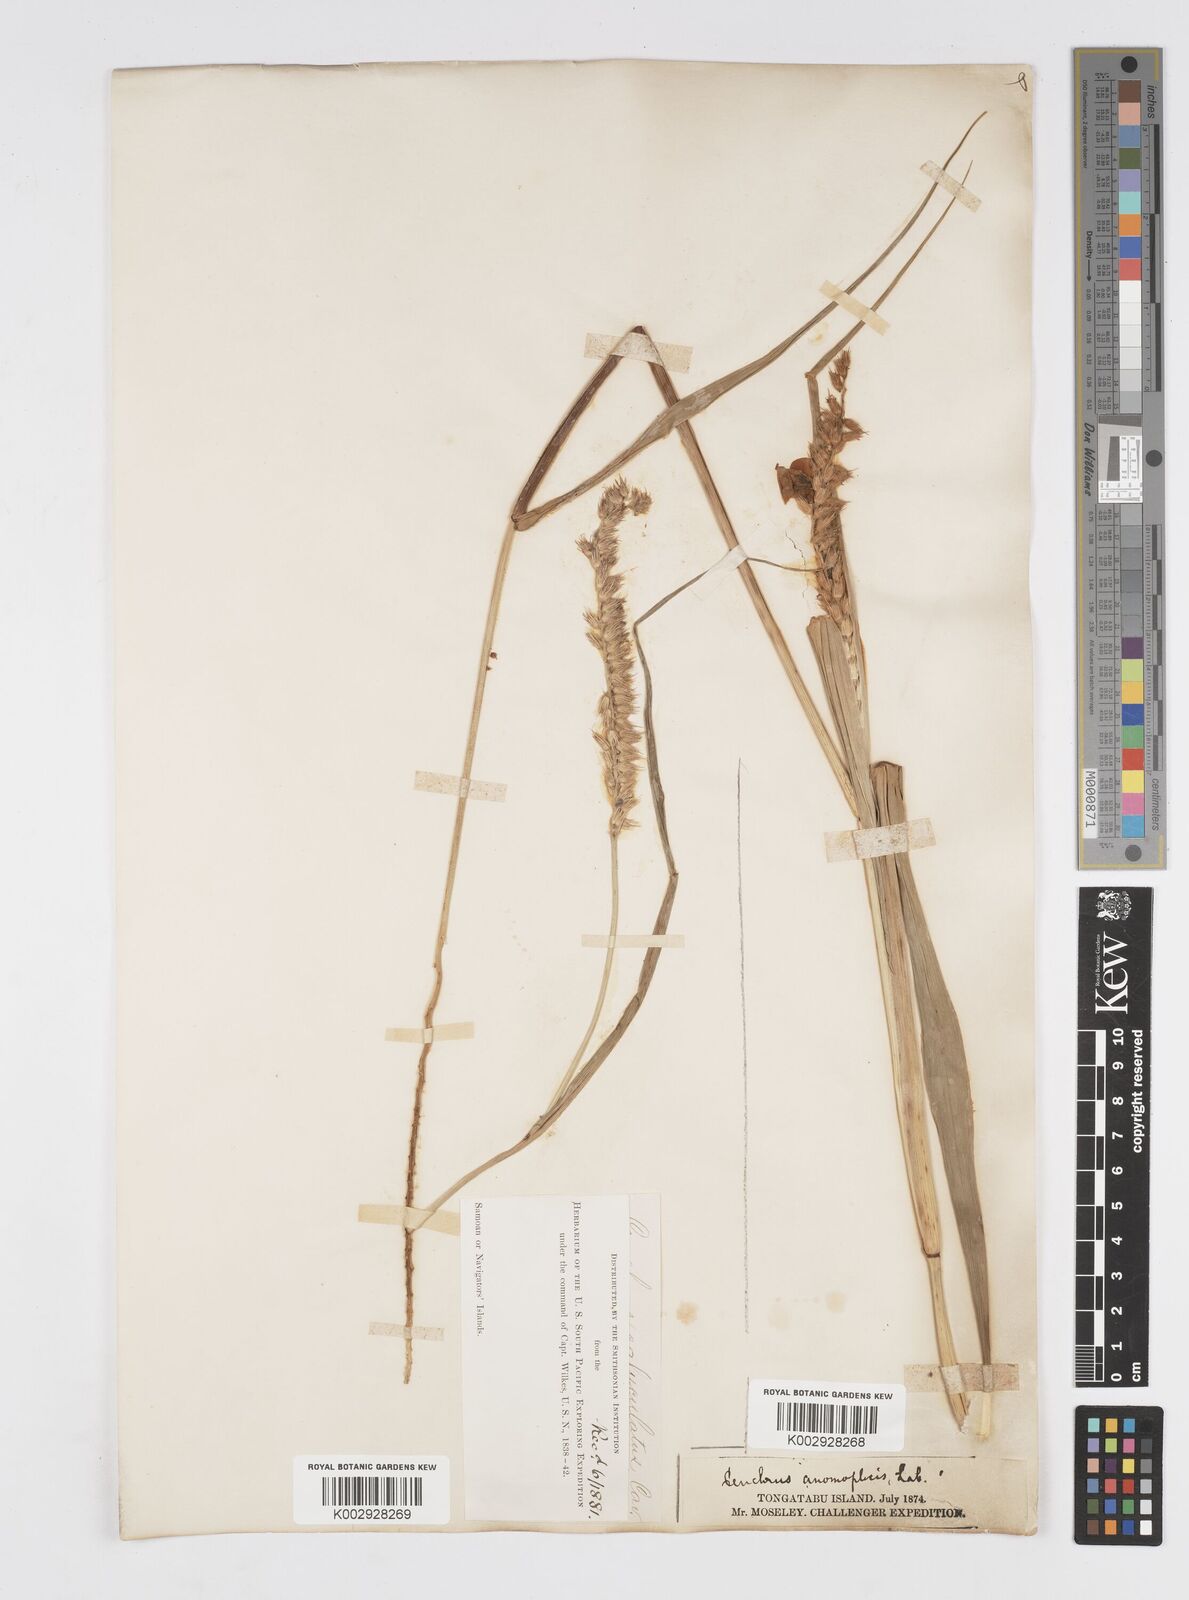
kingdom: Plantae
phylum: Tracheophyta
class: Liliopsida
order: Poales
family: Poaceae
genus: Cenchrus
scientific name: Cenchrus caliculatus
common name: Large bur grass
